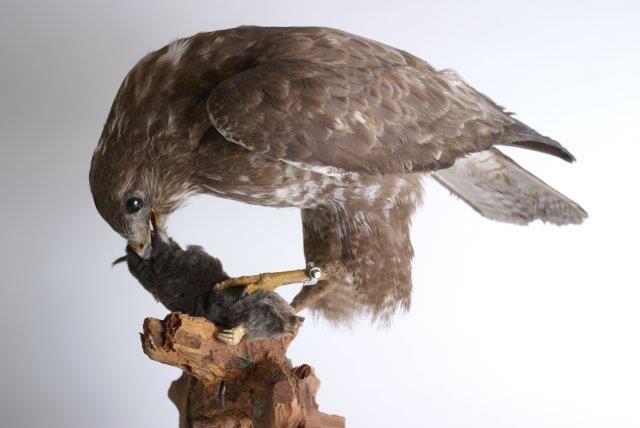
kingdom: Animalia
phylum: Chordata
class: Aves
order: Accipitriformes
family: Accipitridae
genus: Buteo
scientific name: Buteo buteo
